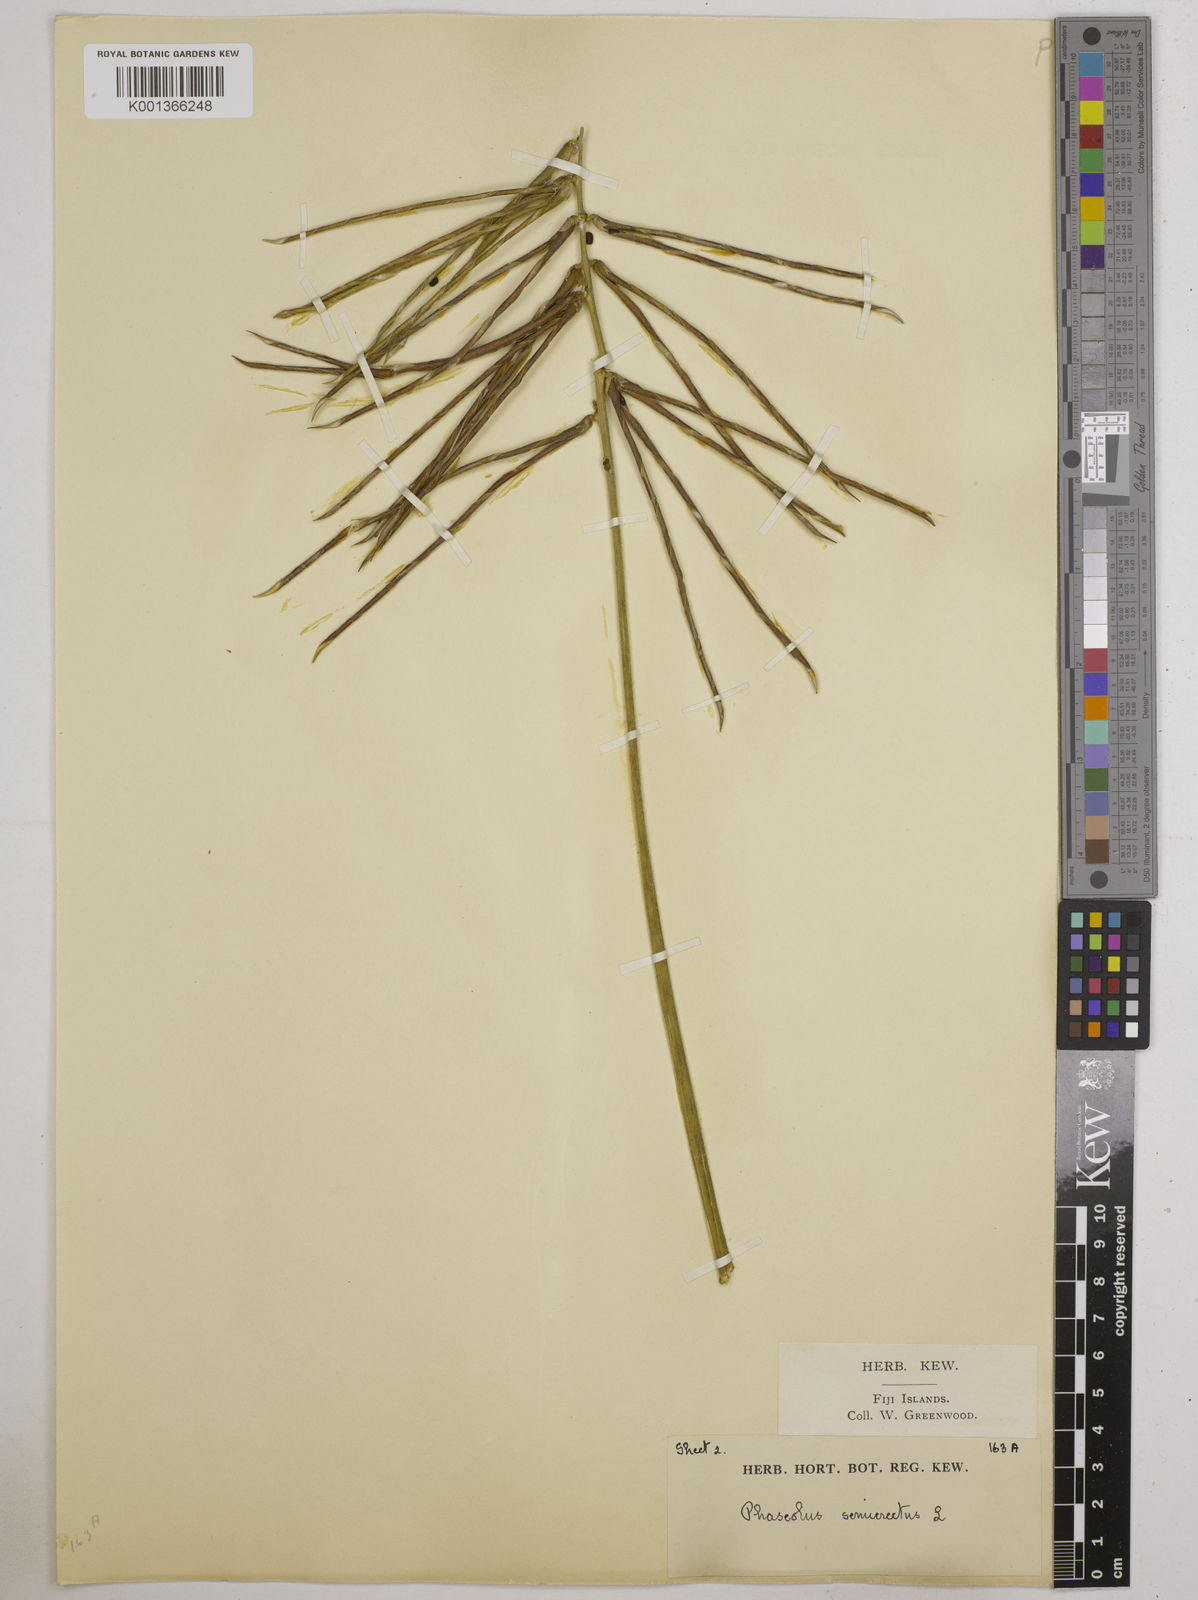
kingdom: Plantae
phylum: Tracheophyta
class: Magnoliopsida
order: Fabales
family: Fabaceae
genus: Macroptilium
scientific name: Macroptilium lathyroides
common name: Wild bushbean
